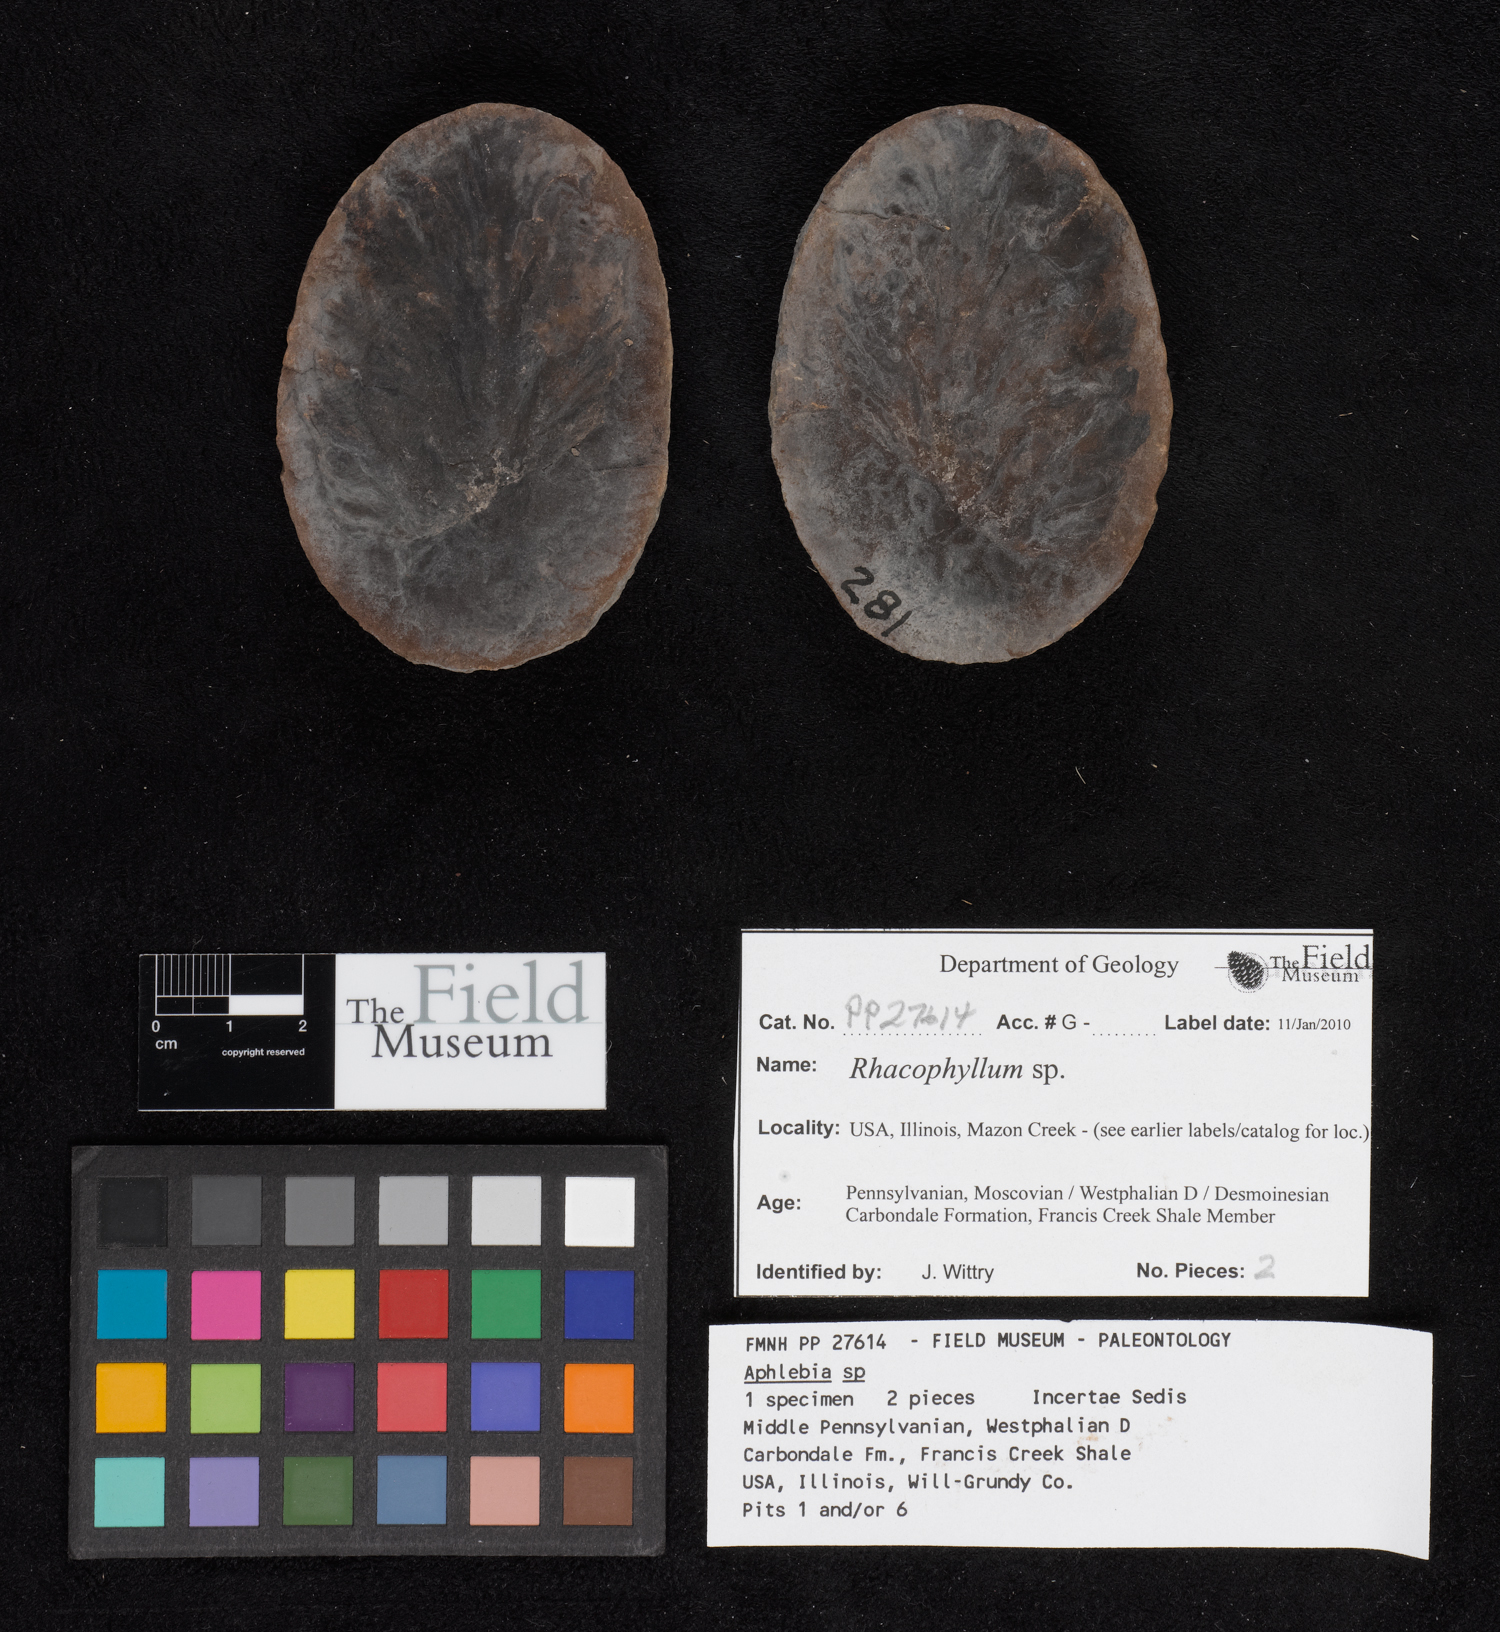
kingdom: Plantae
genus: Rhacophyllum
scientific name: Rhacophyllum
